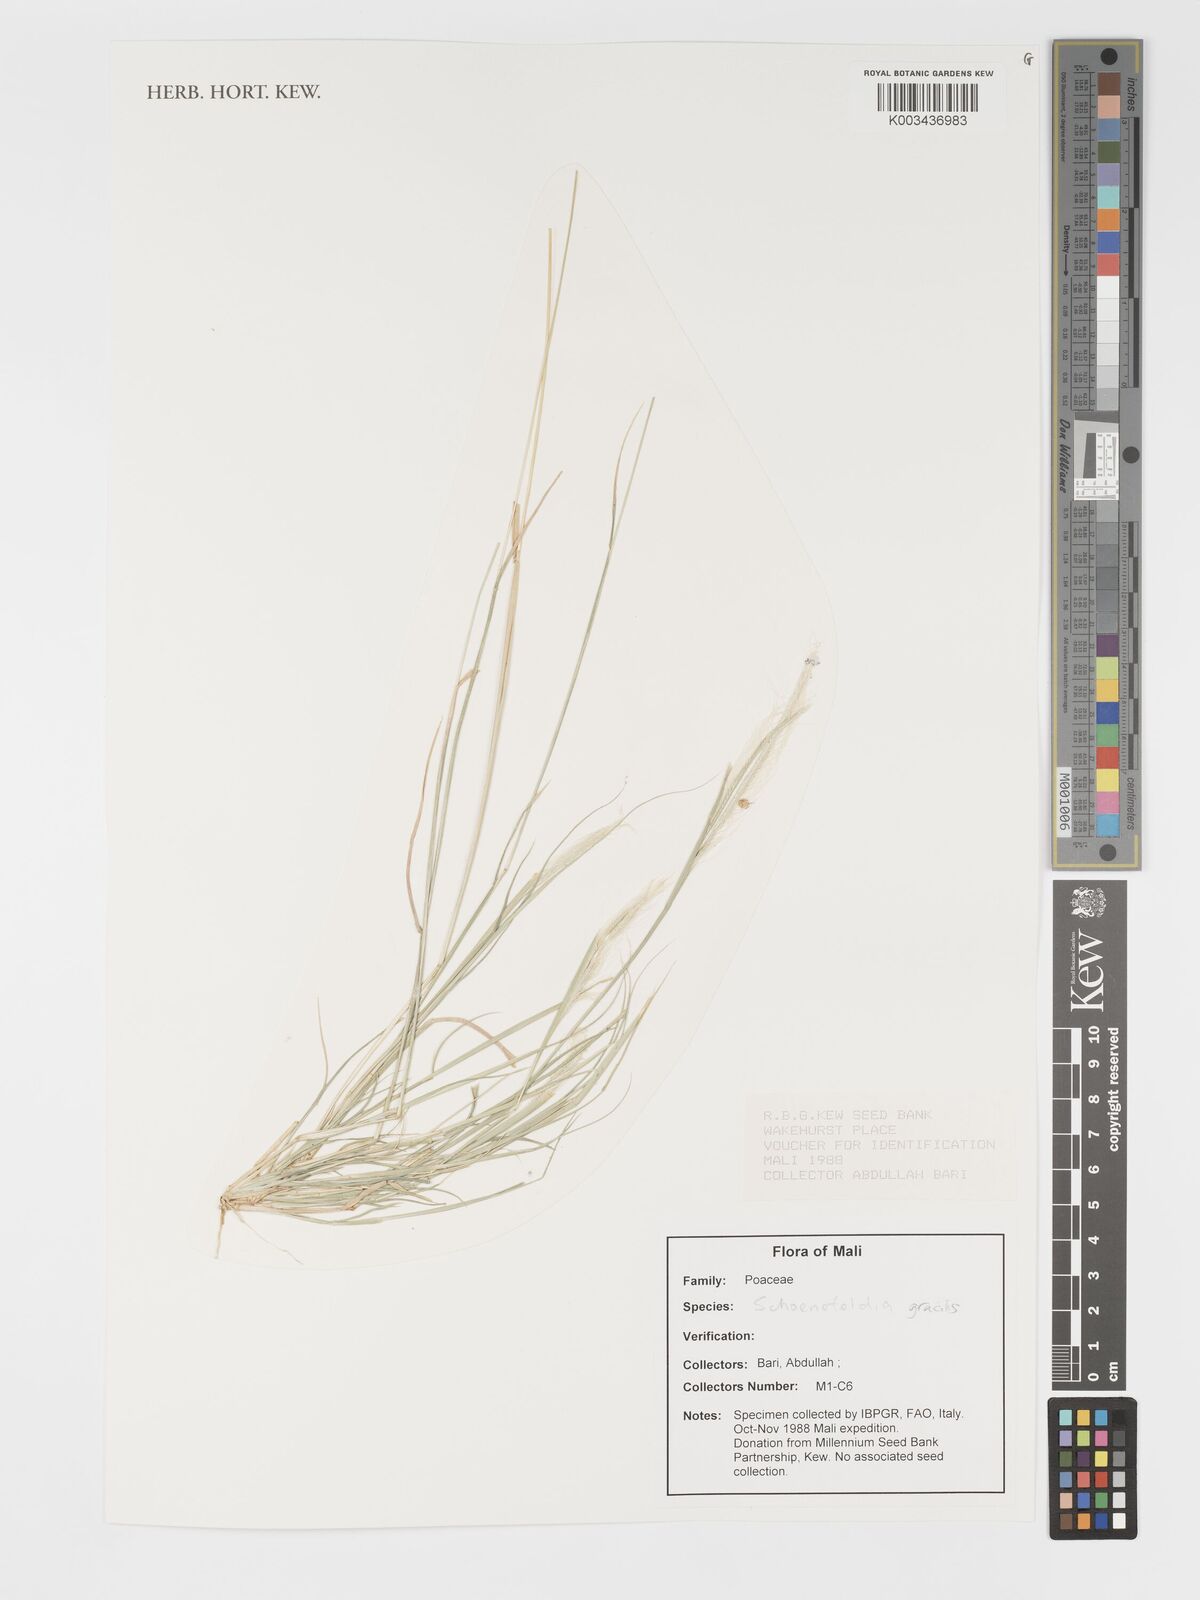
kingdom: Plantae
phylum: Tracheophyta
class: Liliopsida
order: Poales
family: Poaceae
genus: Schoenefeldia
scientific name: Schoenefeldia gracilis
